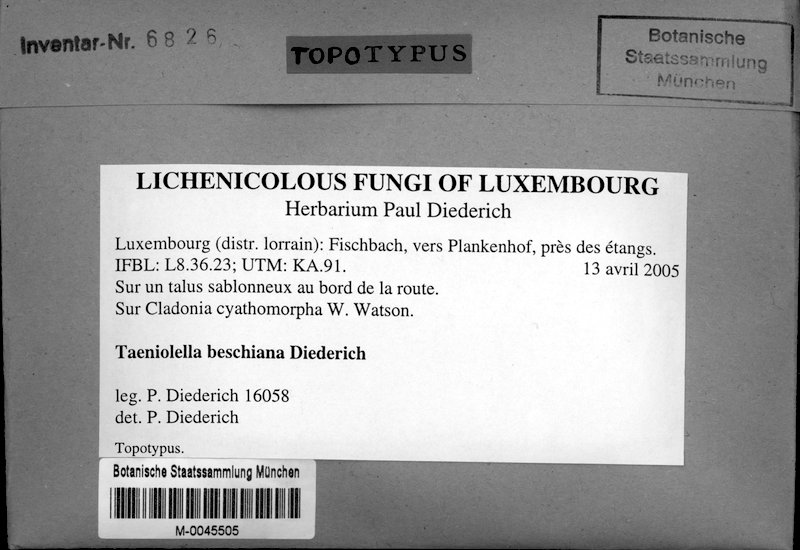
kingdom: Fungi
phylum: Ascomycota
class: Lecanoromycetes
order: Lecanorales
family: Cladoniaceae
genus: Cladonia
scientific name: Cladonia cyathomorpha
